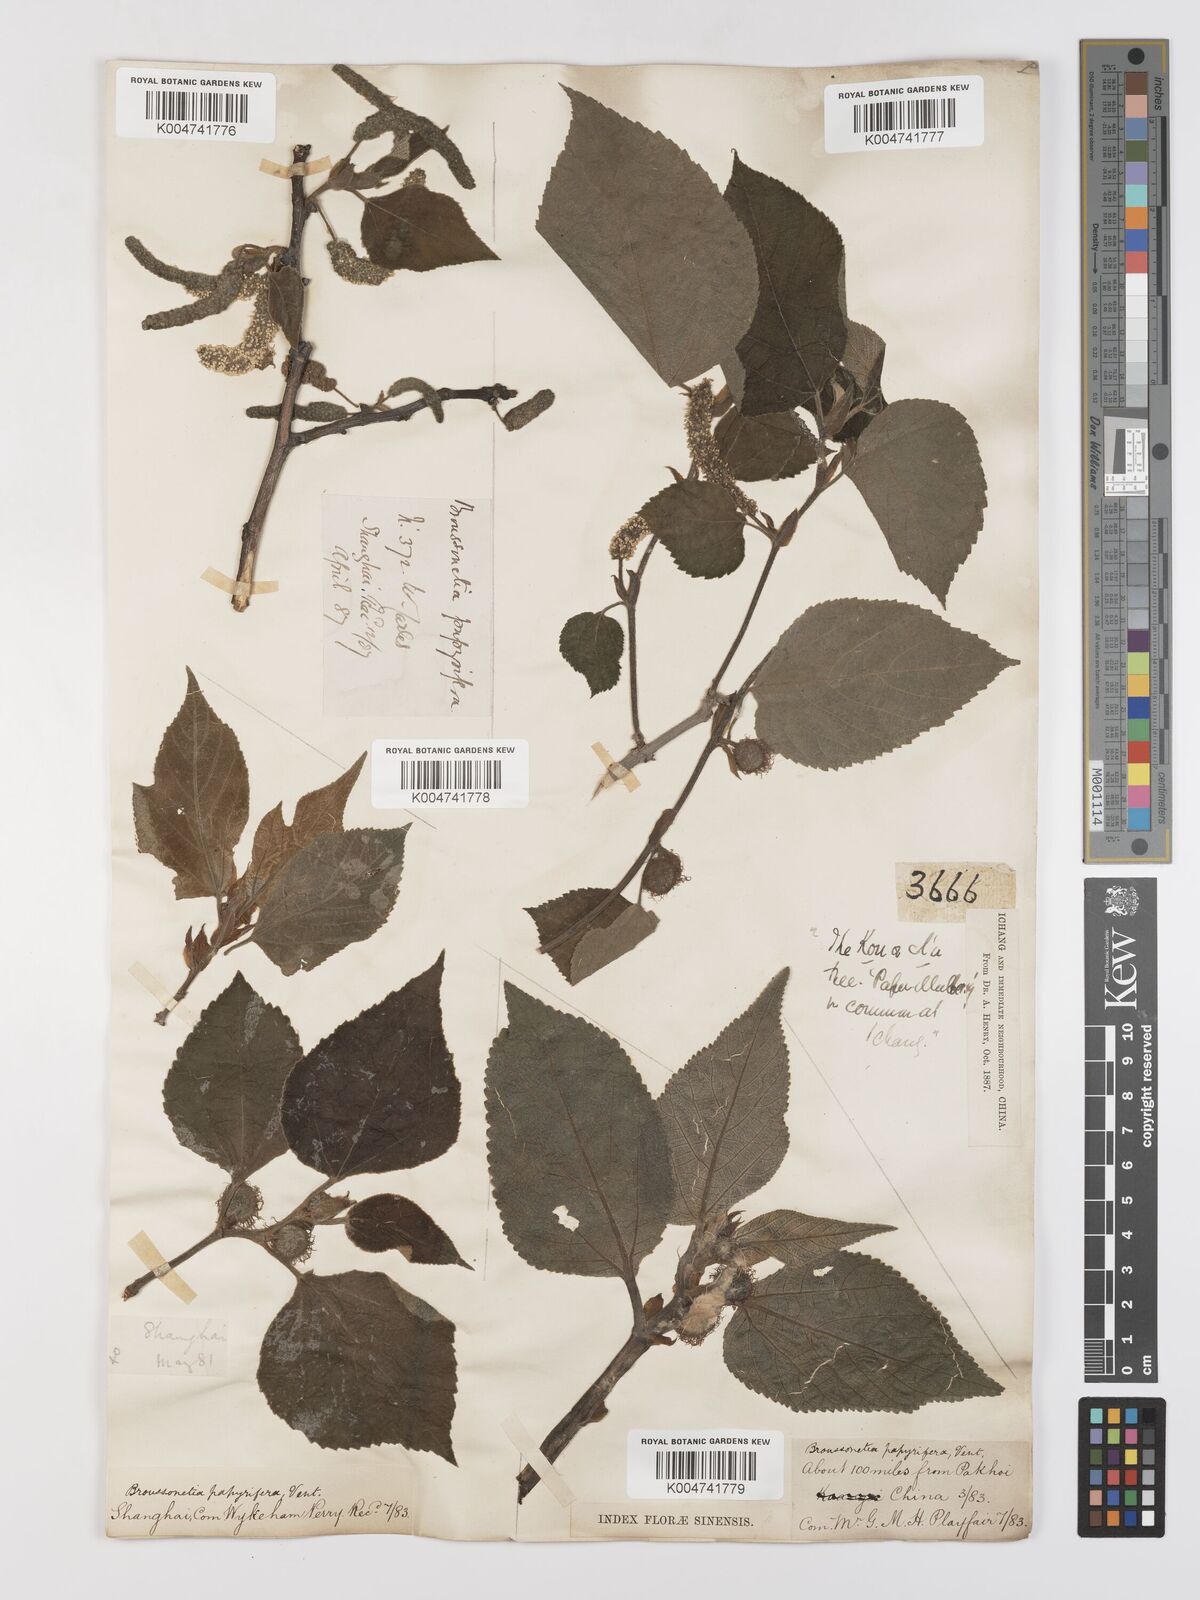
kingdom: Plantae
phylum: Tracheophyta
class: Magnoliopsida
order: Rosales
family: Moraceae
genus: Broussonetia
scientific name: Broussonetia papyrifera
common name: Paper mulberry
